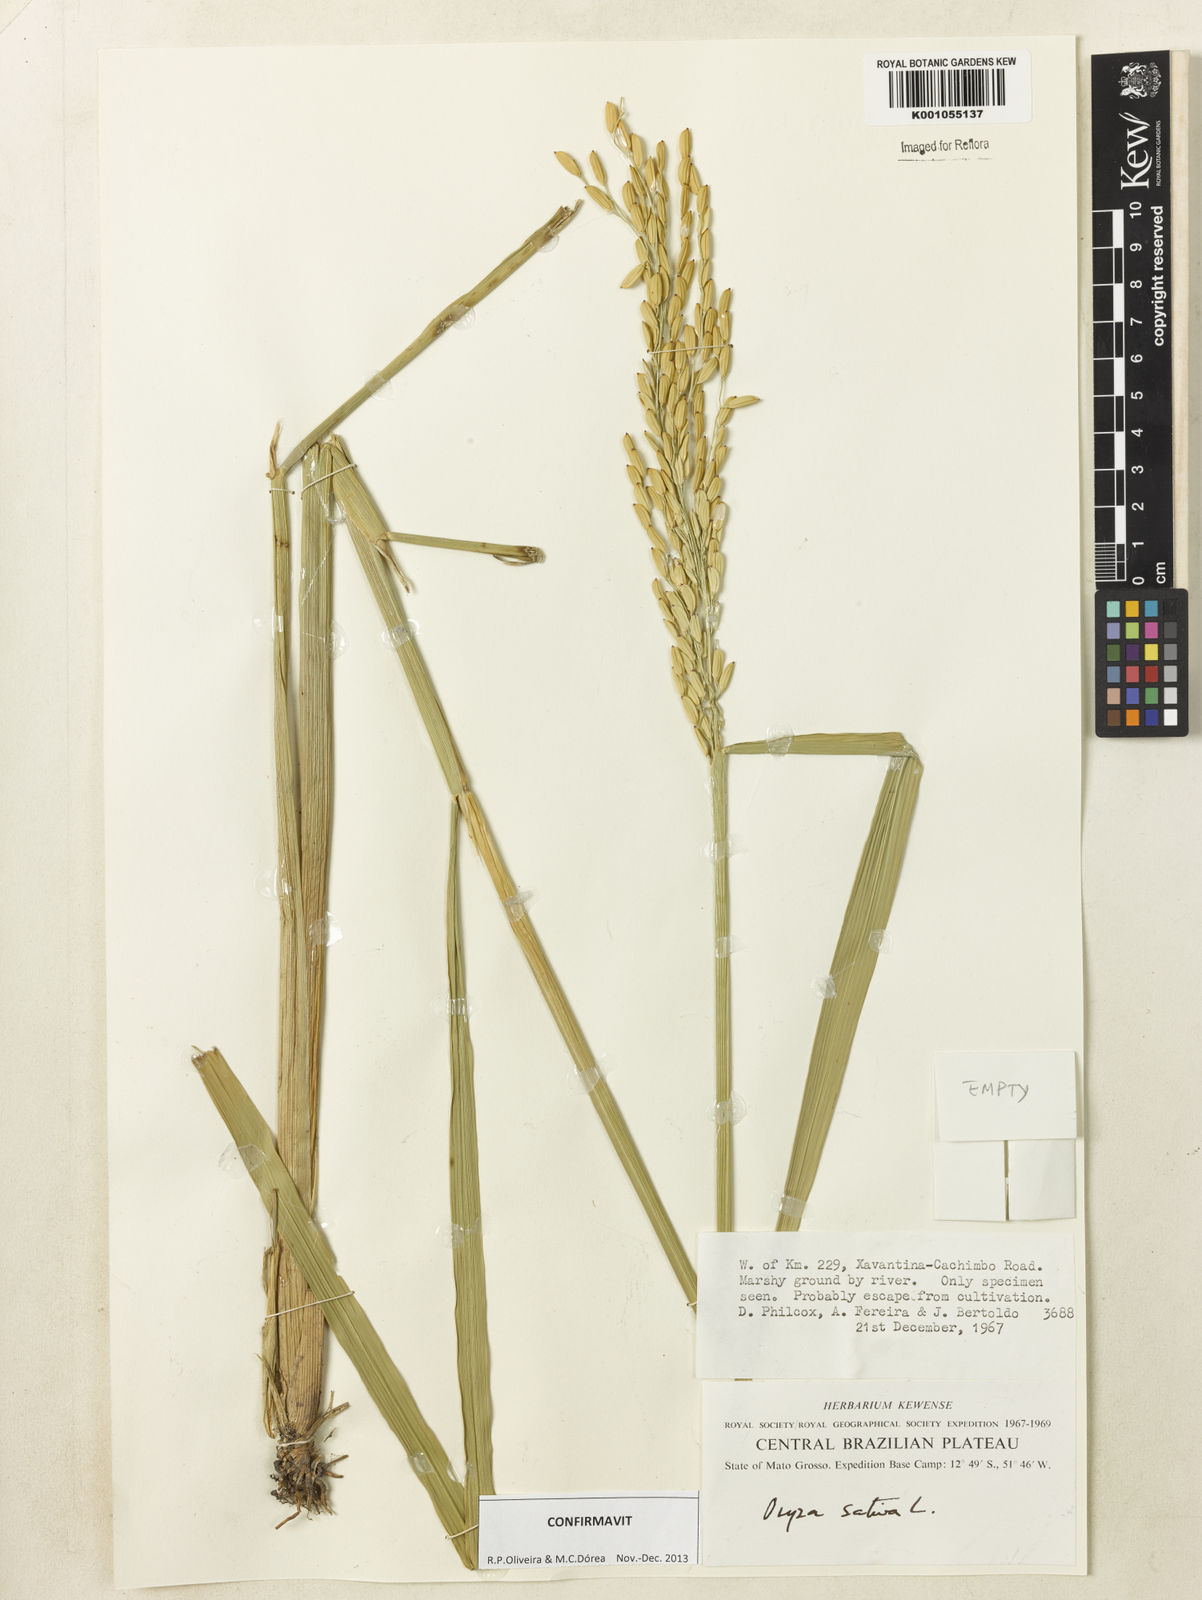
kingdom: Plantae
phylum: Tracheophyta
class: Liliopsida
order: Poales
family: Poaceae
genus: Oryza
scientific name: Oryza sativa
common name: Rice
